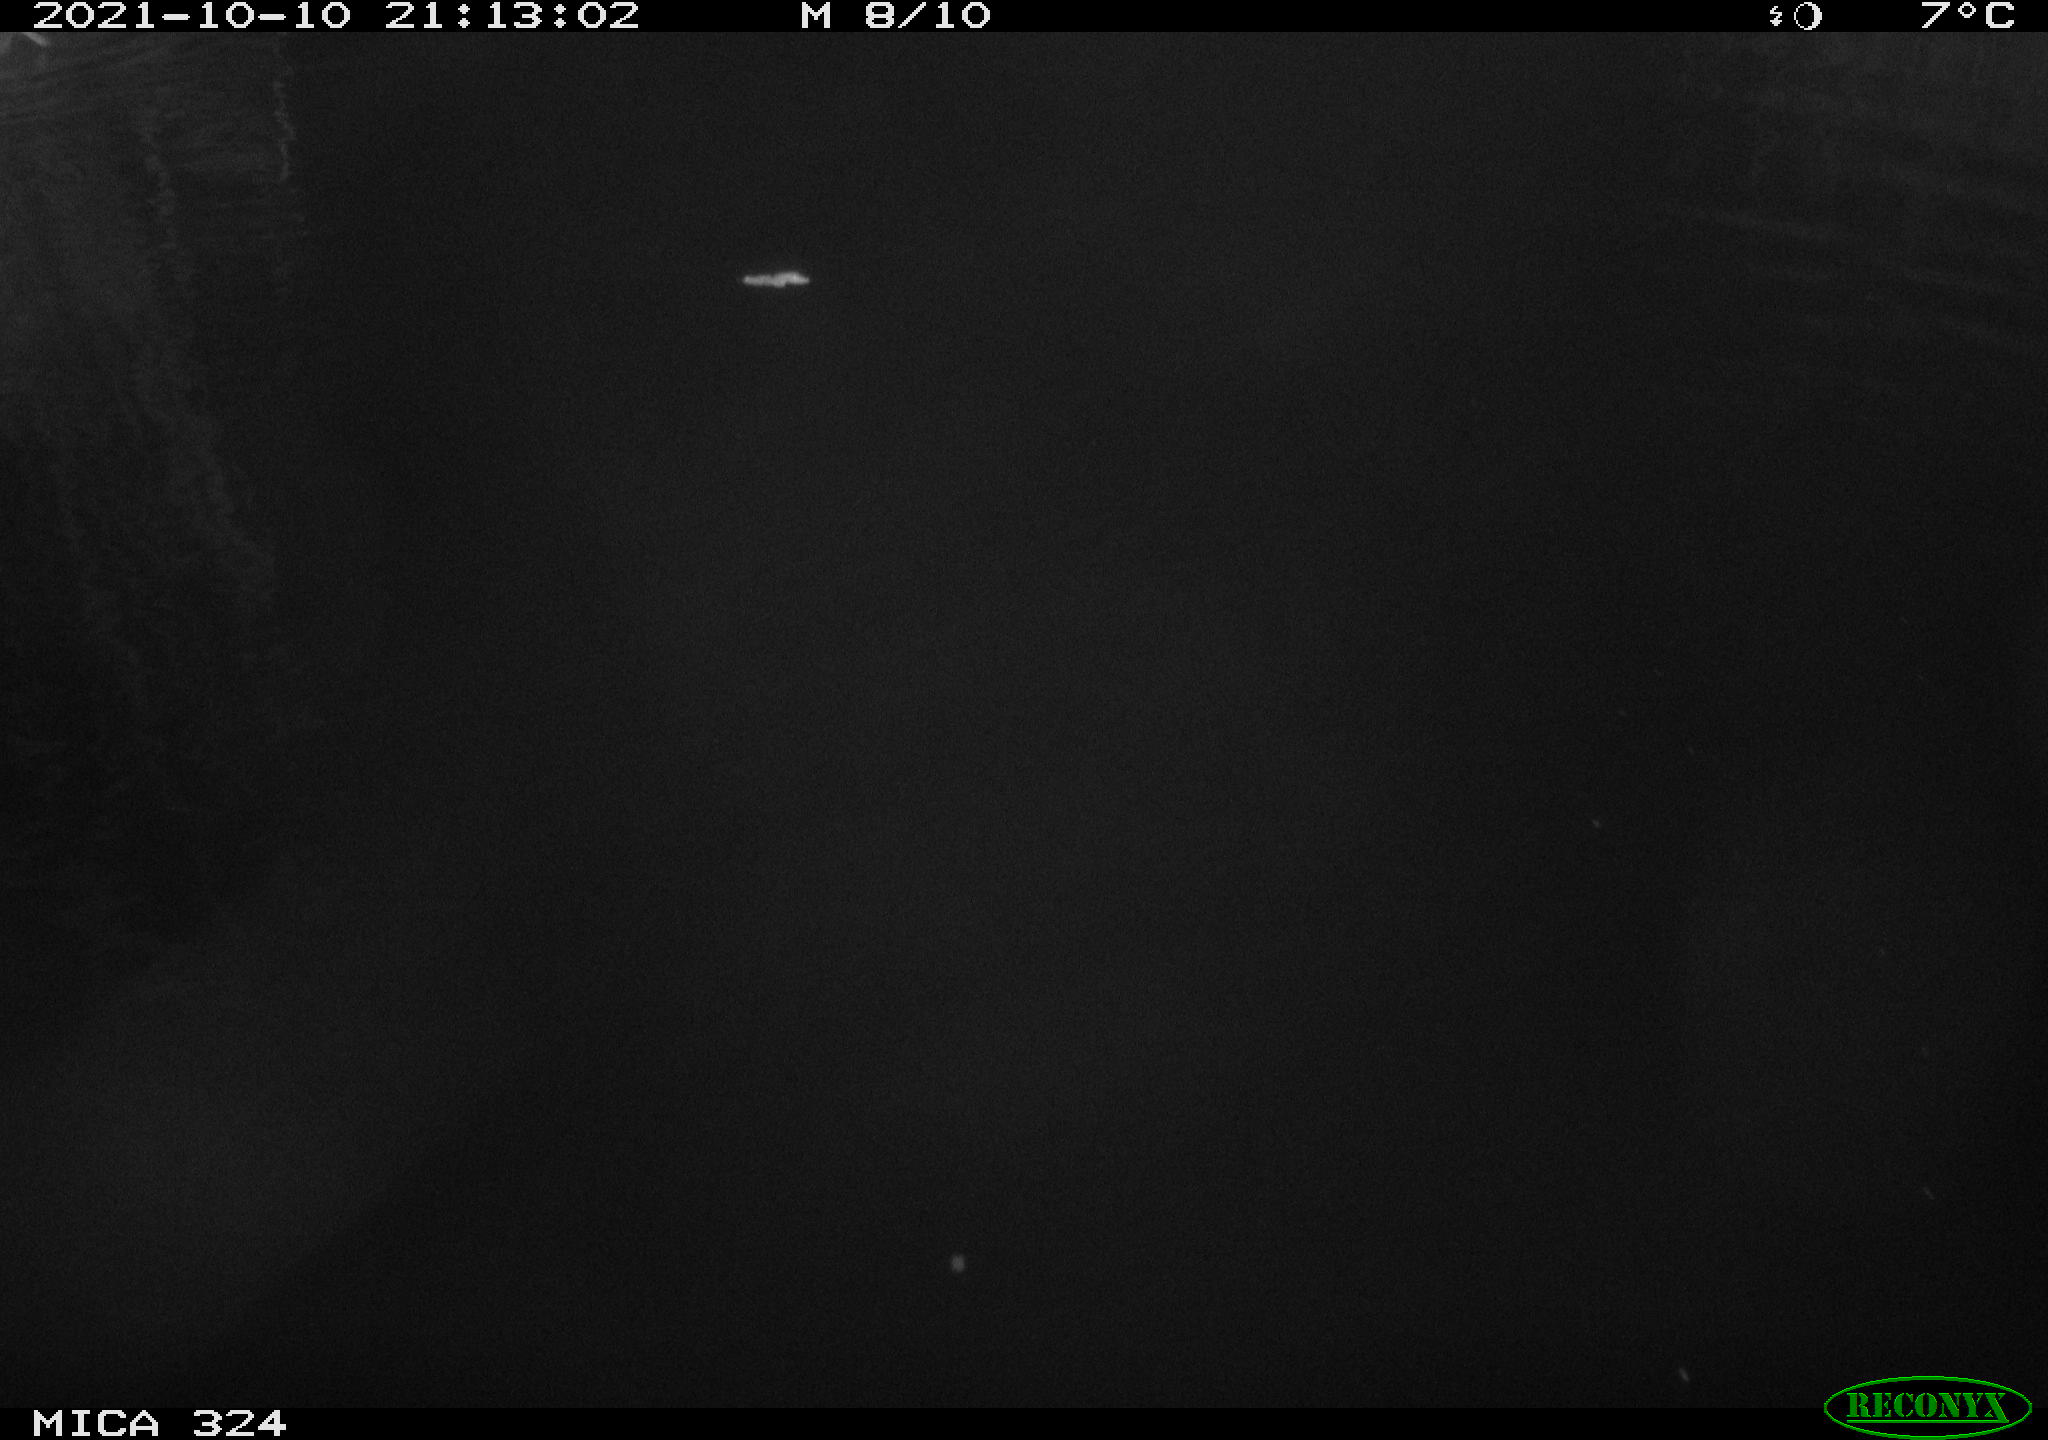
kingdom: Animalia
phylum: Chordata
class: Mammalia
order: Rodentia
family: Cricetidae
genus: Ondatra
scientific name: Ondatra zibethicus
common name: Muskrat
